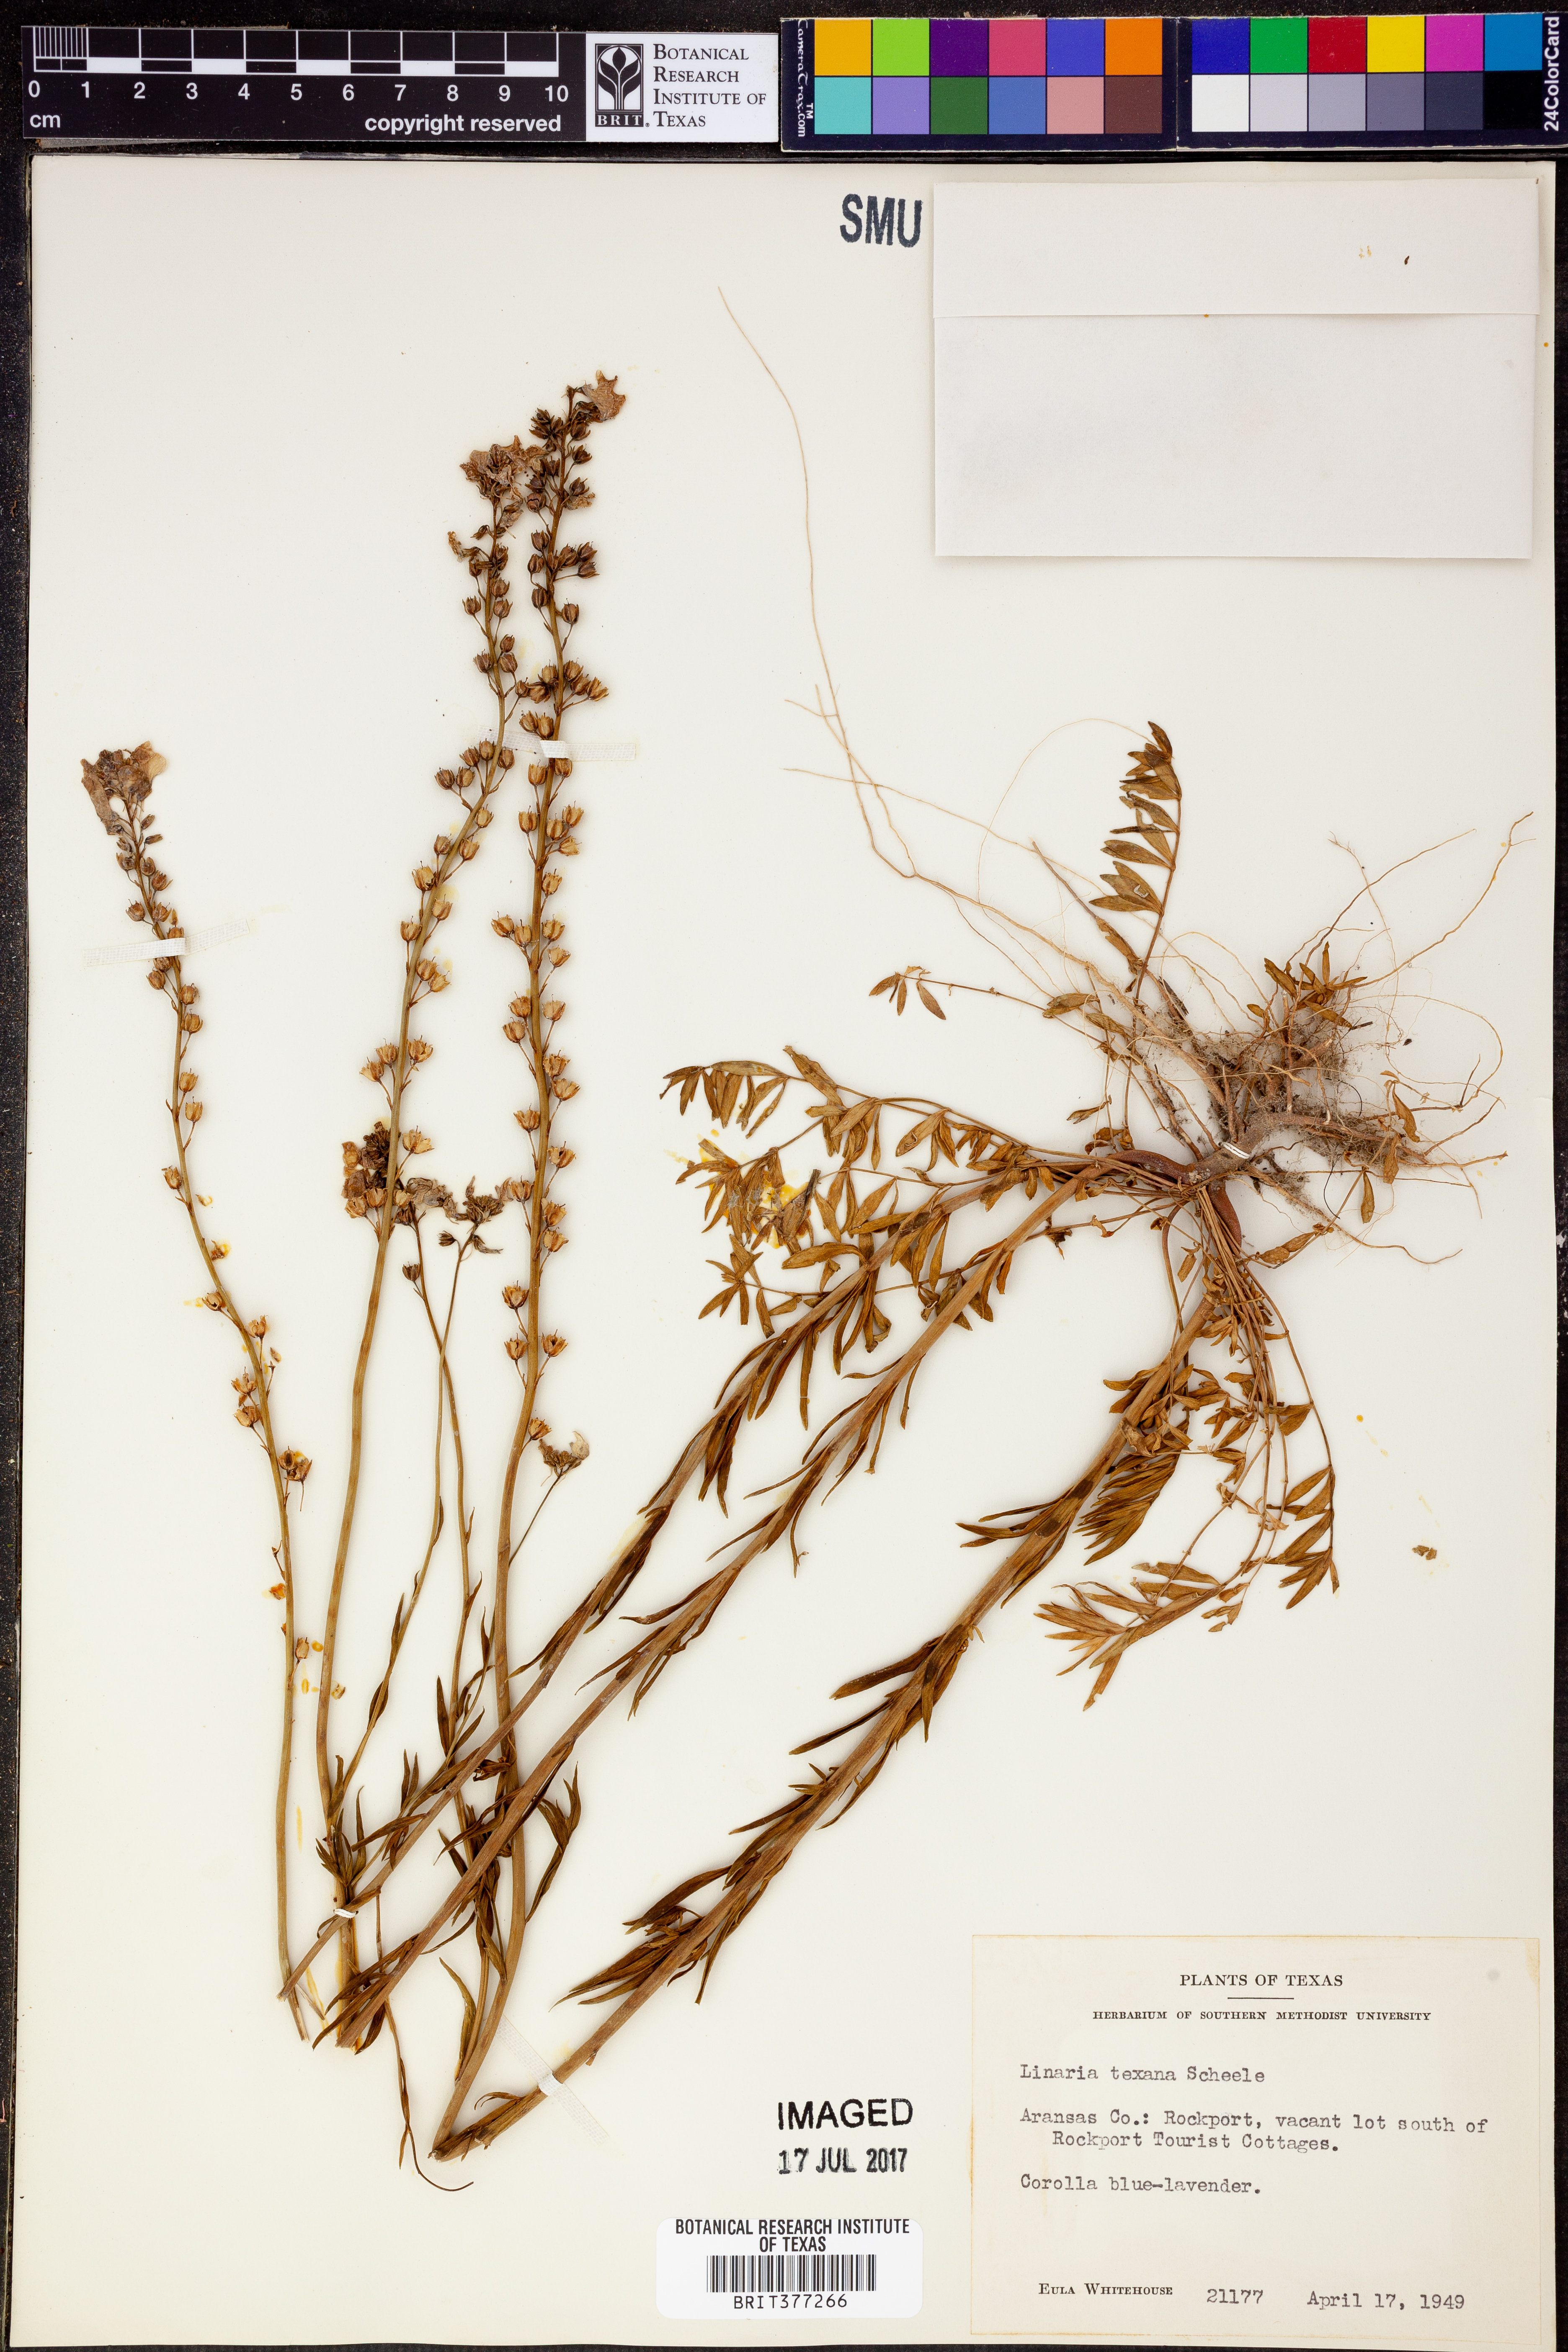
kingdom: Plantae
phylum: Tracheophyta
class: Magnoliopsida
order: Lamiales
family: Plantaginaceae
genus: Nuttallanthus
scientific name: Nuttallanthus texanus
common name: Texas toadflax
